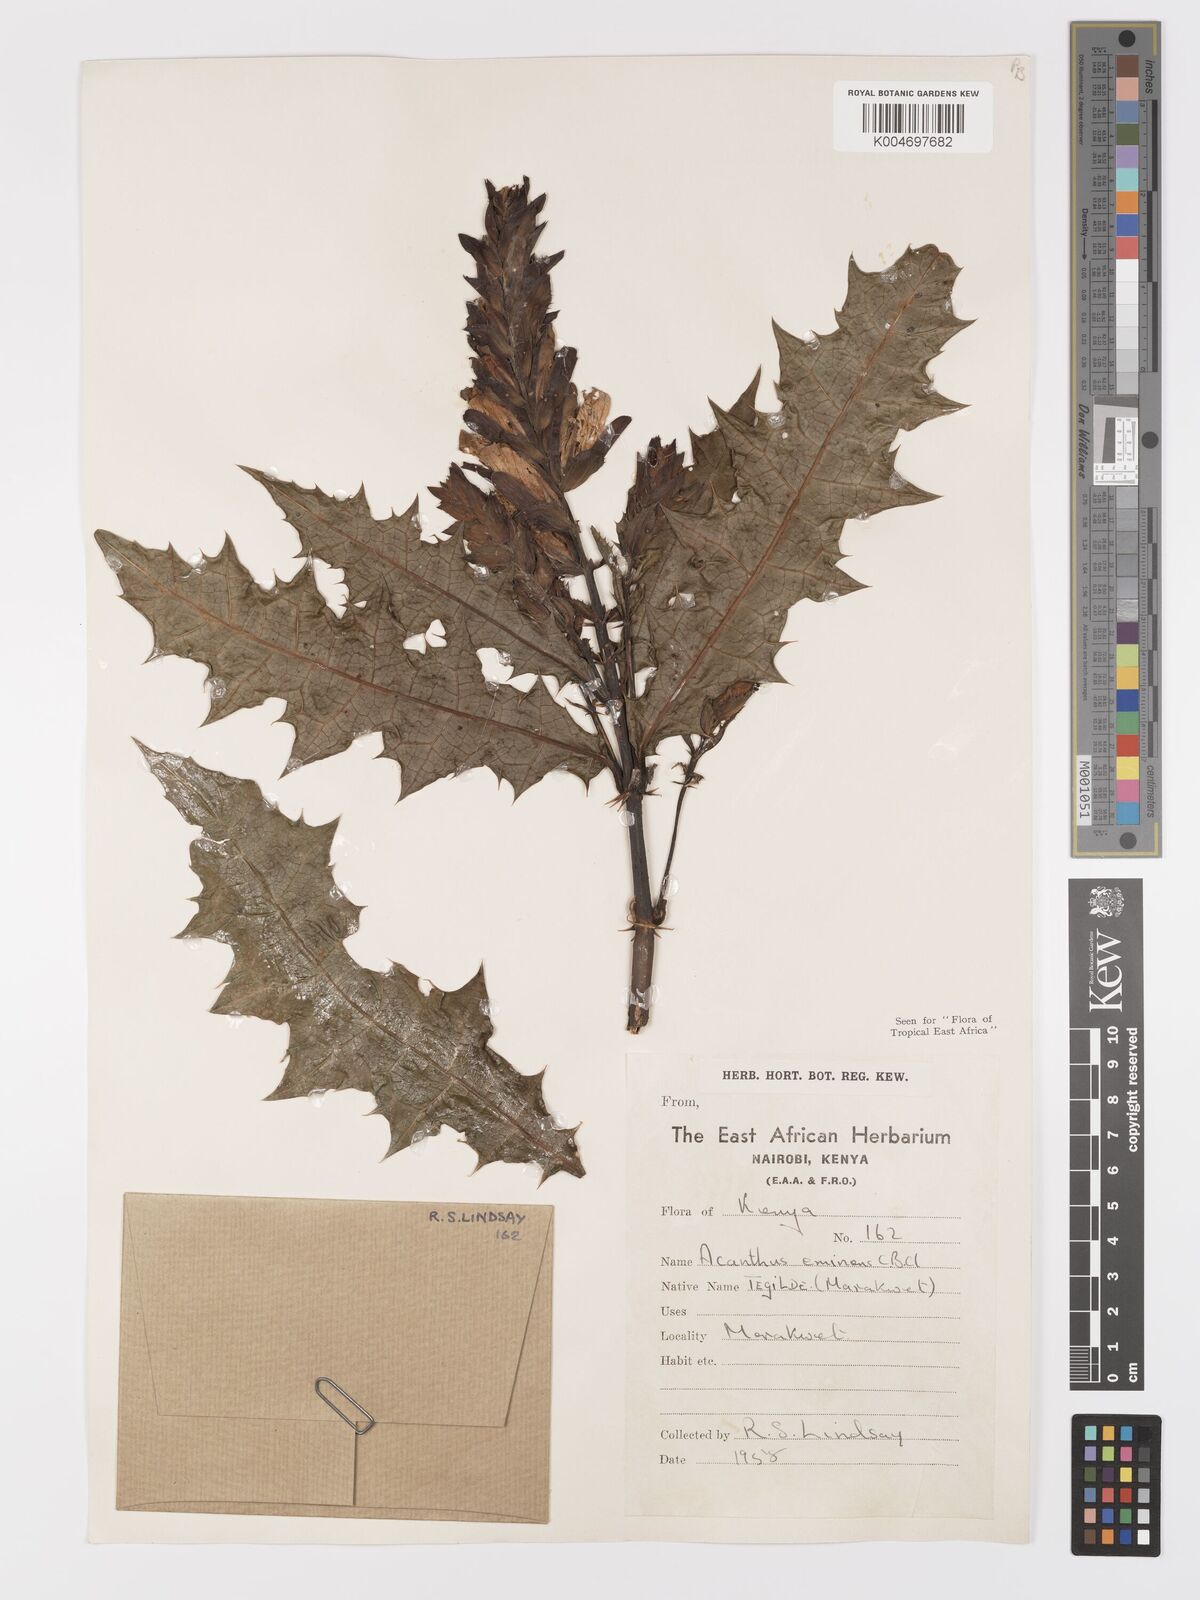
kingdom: Plantae
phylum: Tracheophyta
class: Magnoliopsida
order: Lamiales
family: Acanthaceae
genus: Acanthus
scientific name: Acanthus eminens
